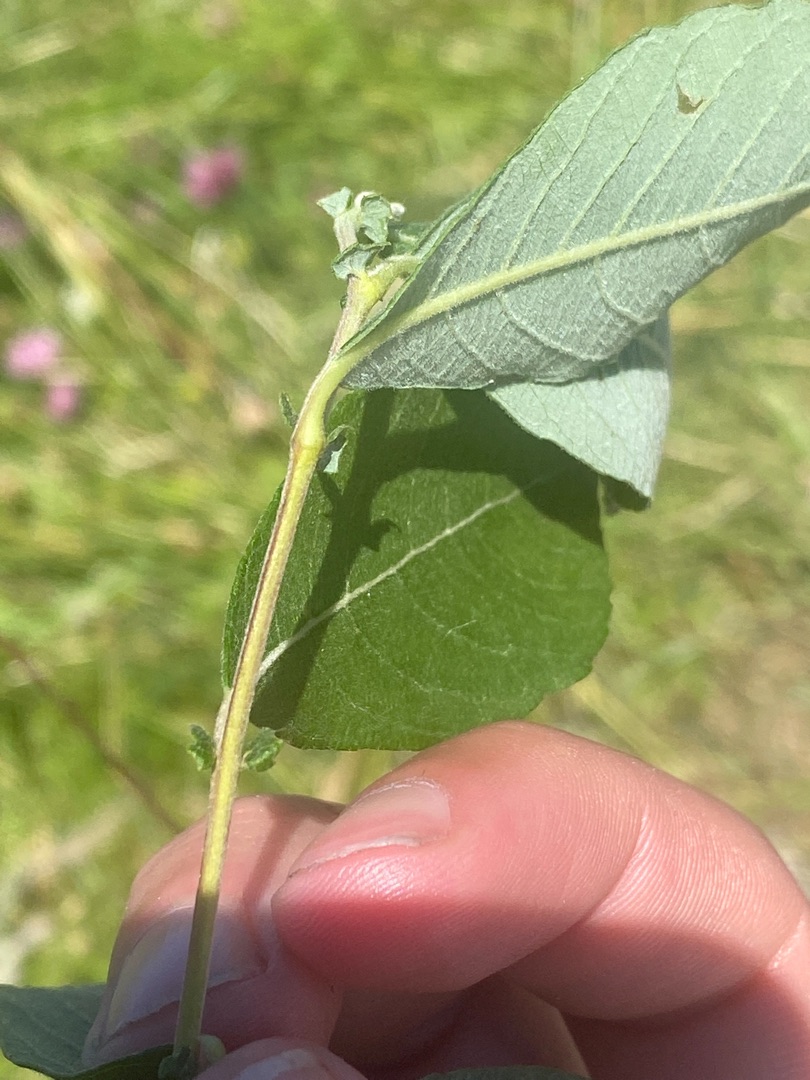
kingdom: Plantae
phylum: Tracheophyta
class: Magnoliopsida
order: Malpighiales
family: Salicaceae
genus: Salix
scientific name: Salix
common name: Pileslægten
